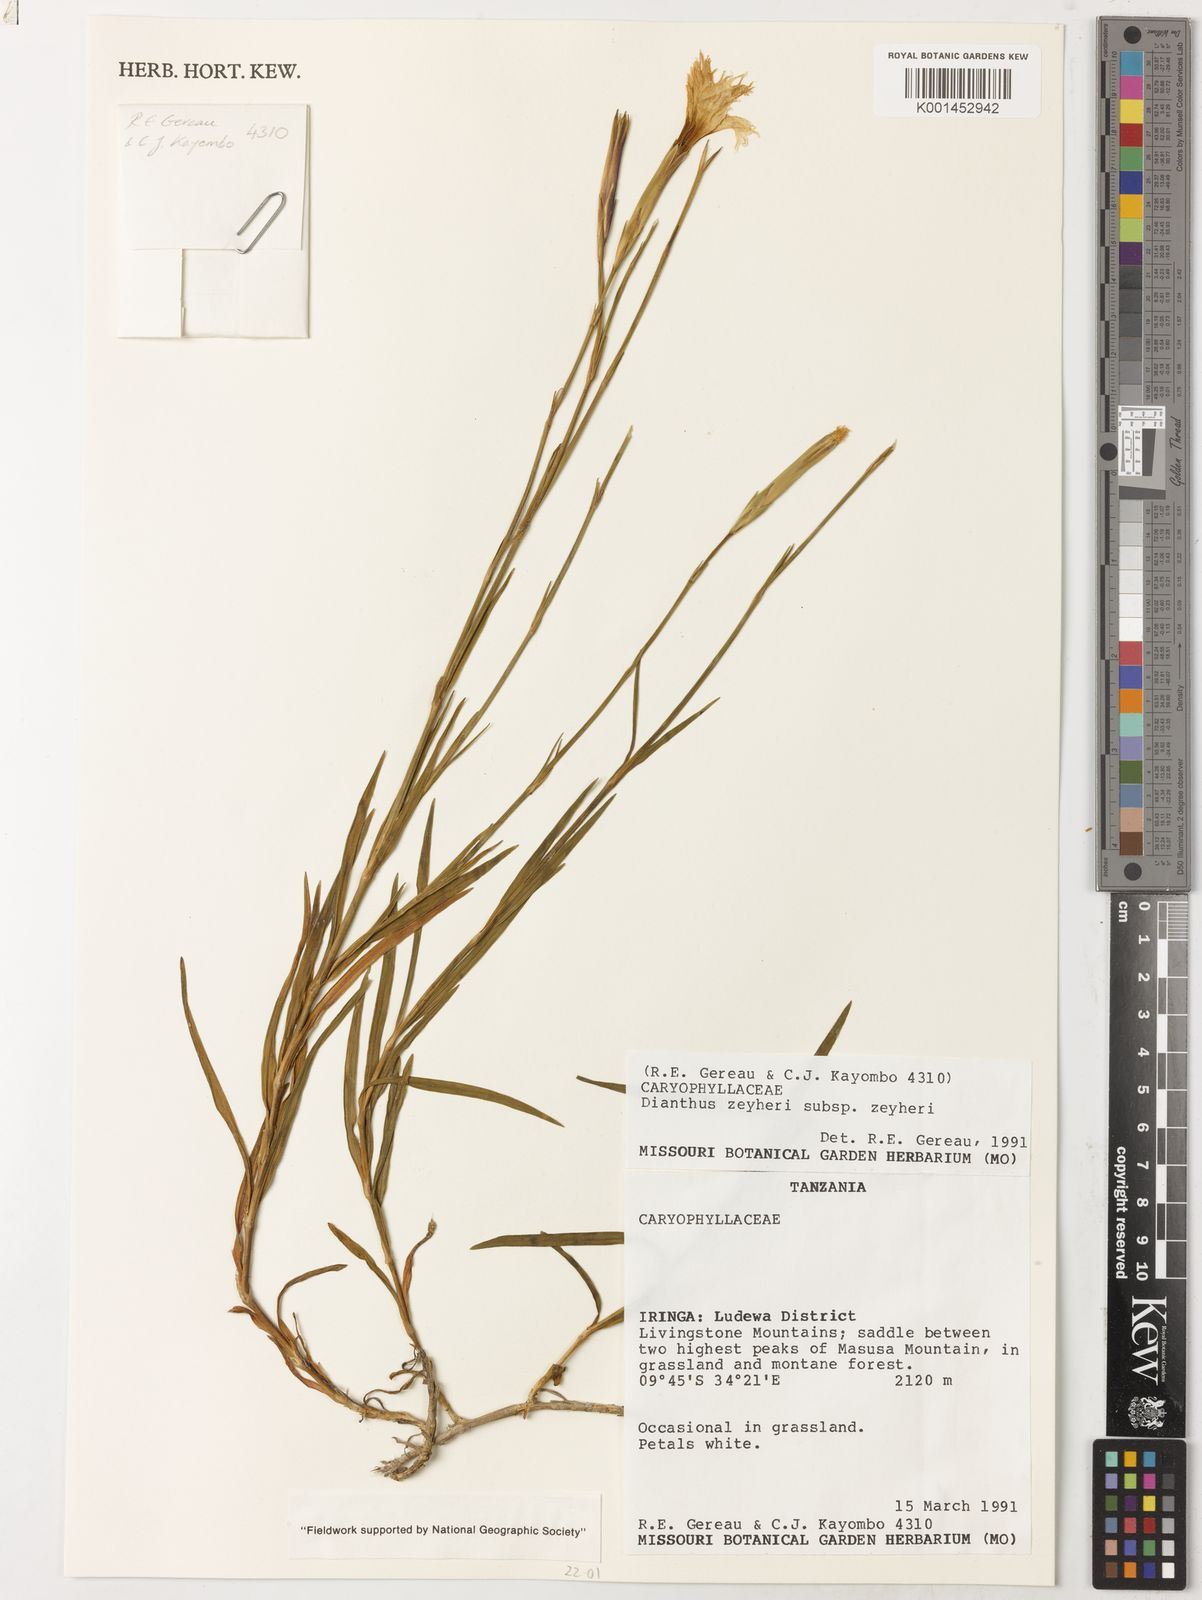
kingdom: Plantae
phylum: Tracheophyta
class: Magnoliopsida
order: Caryophyllales
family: Caryophyllaceae
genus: Dianthus
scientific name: Dianthus zeyheri
